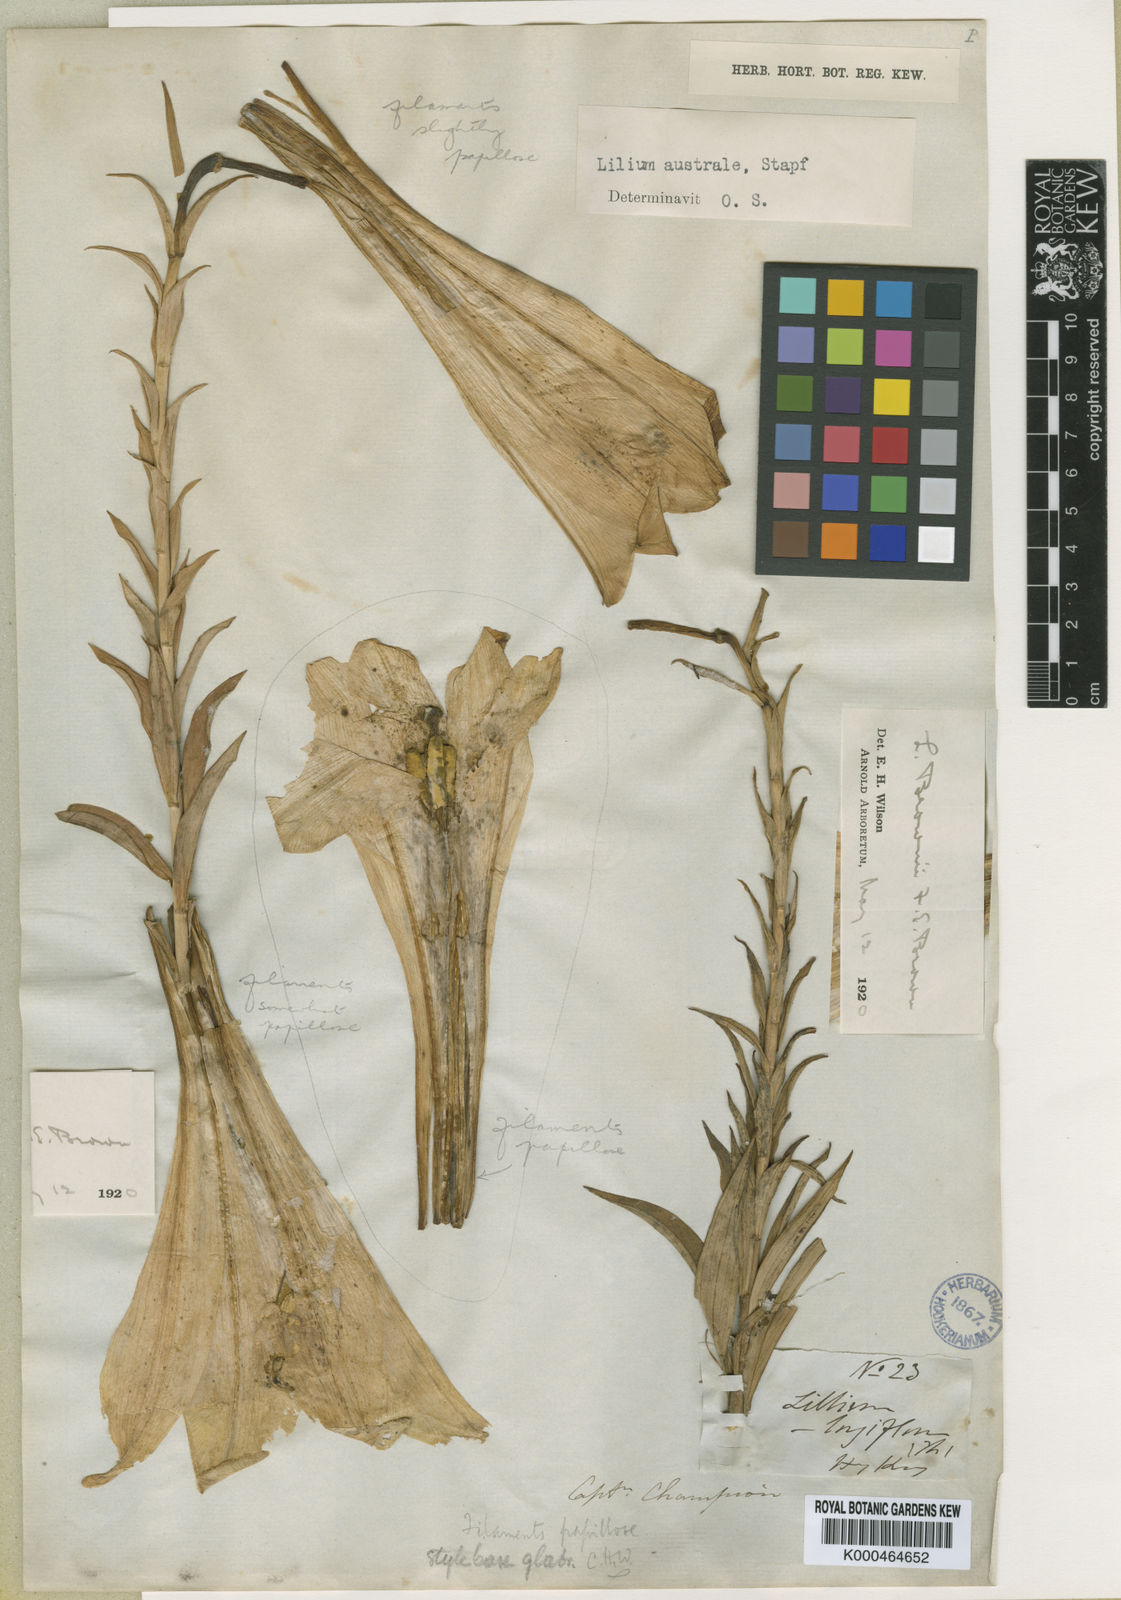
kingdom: Plantae
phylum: Tracheophyta
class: Liliopsida
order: Liliales
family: Liliaceae
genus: Lilium
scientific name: Lilium
